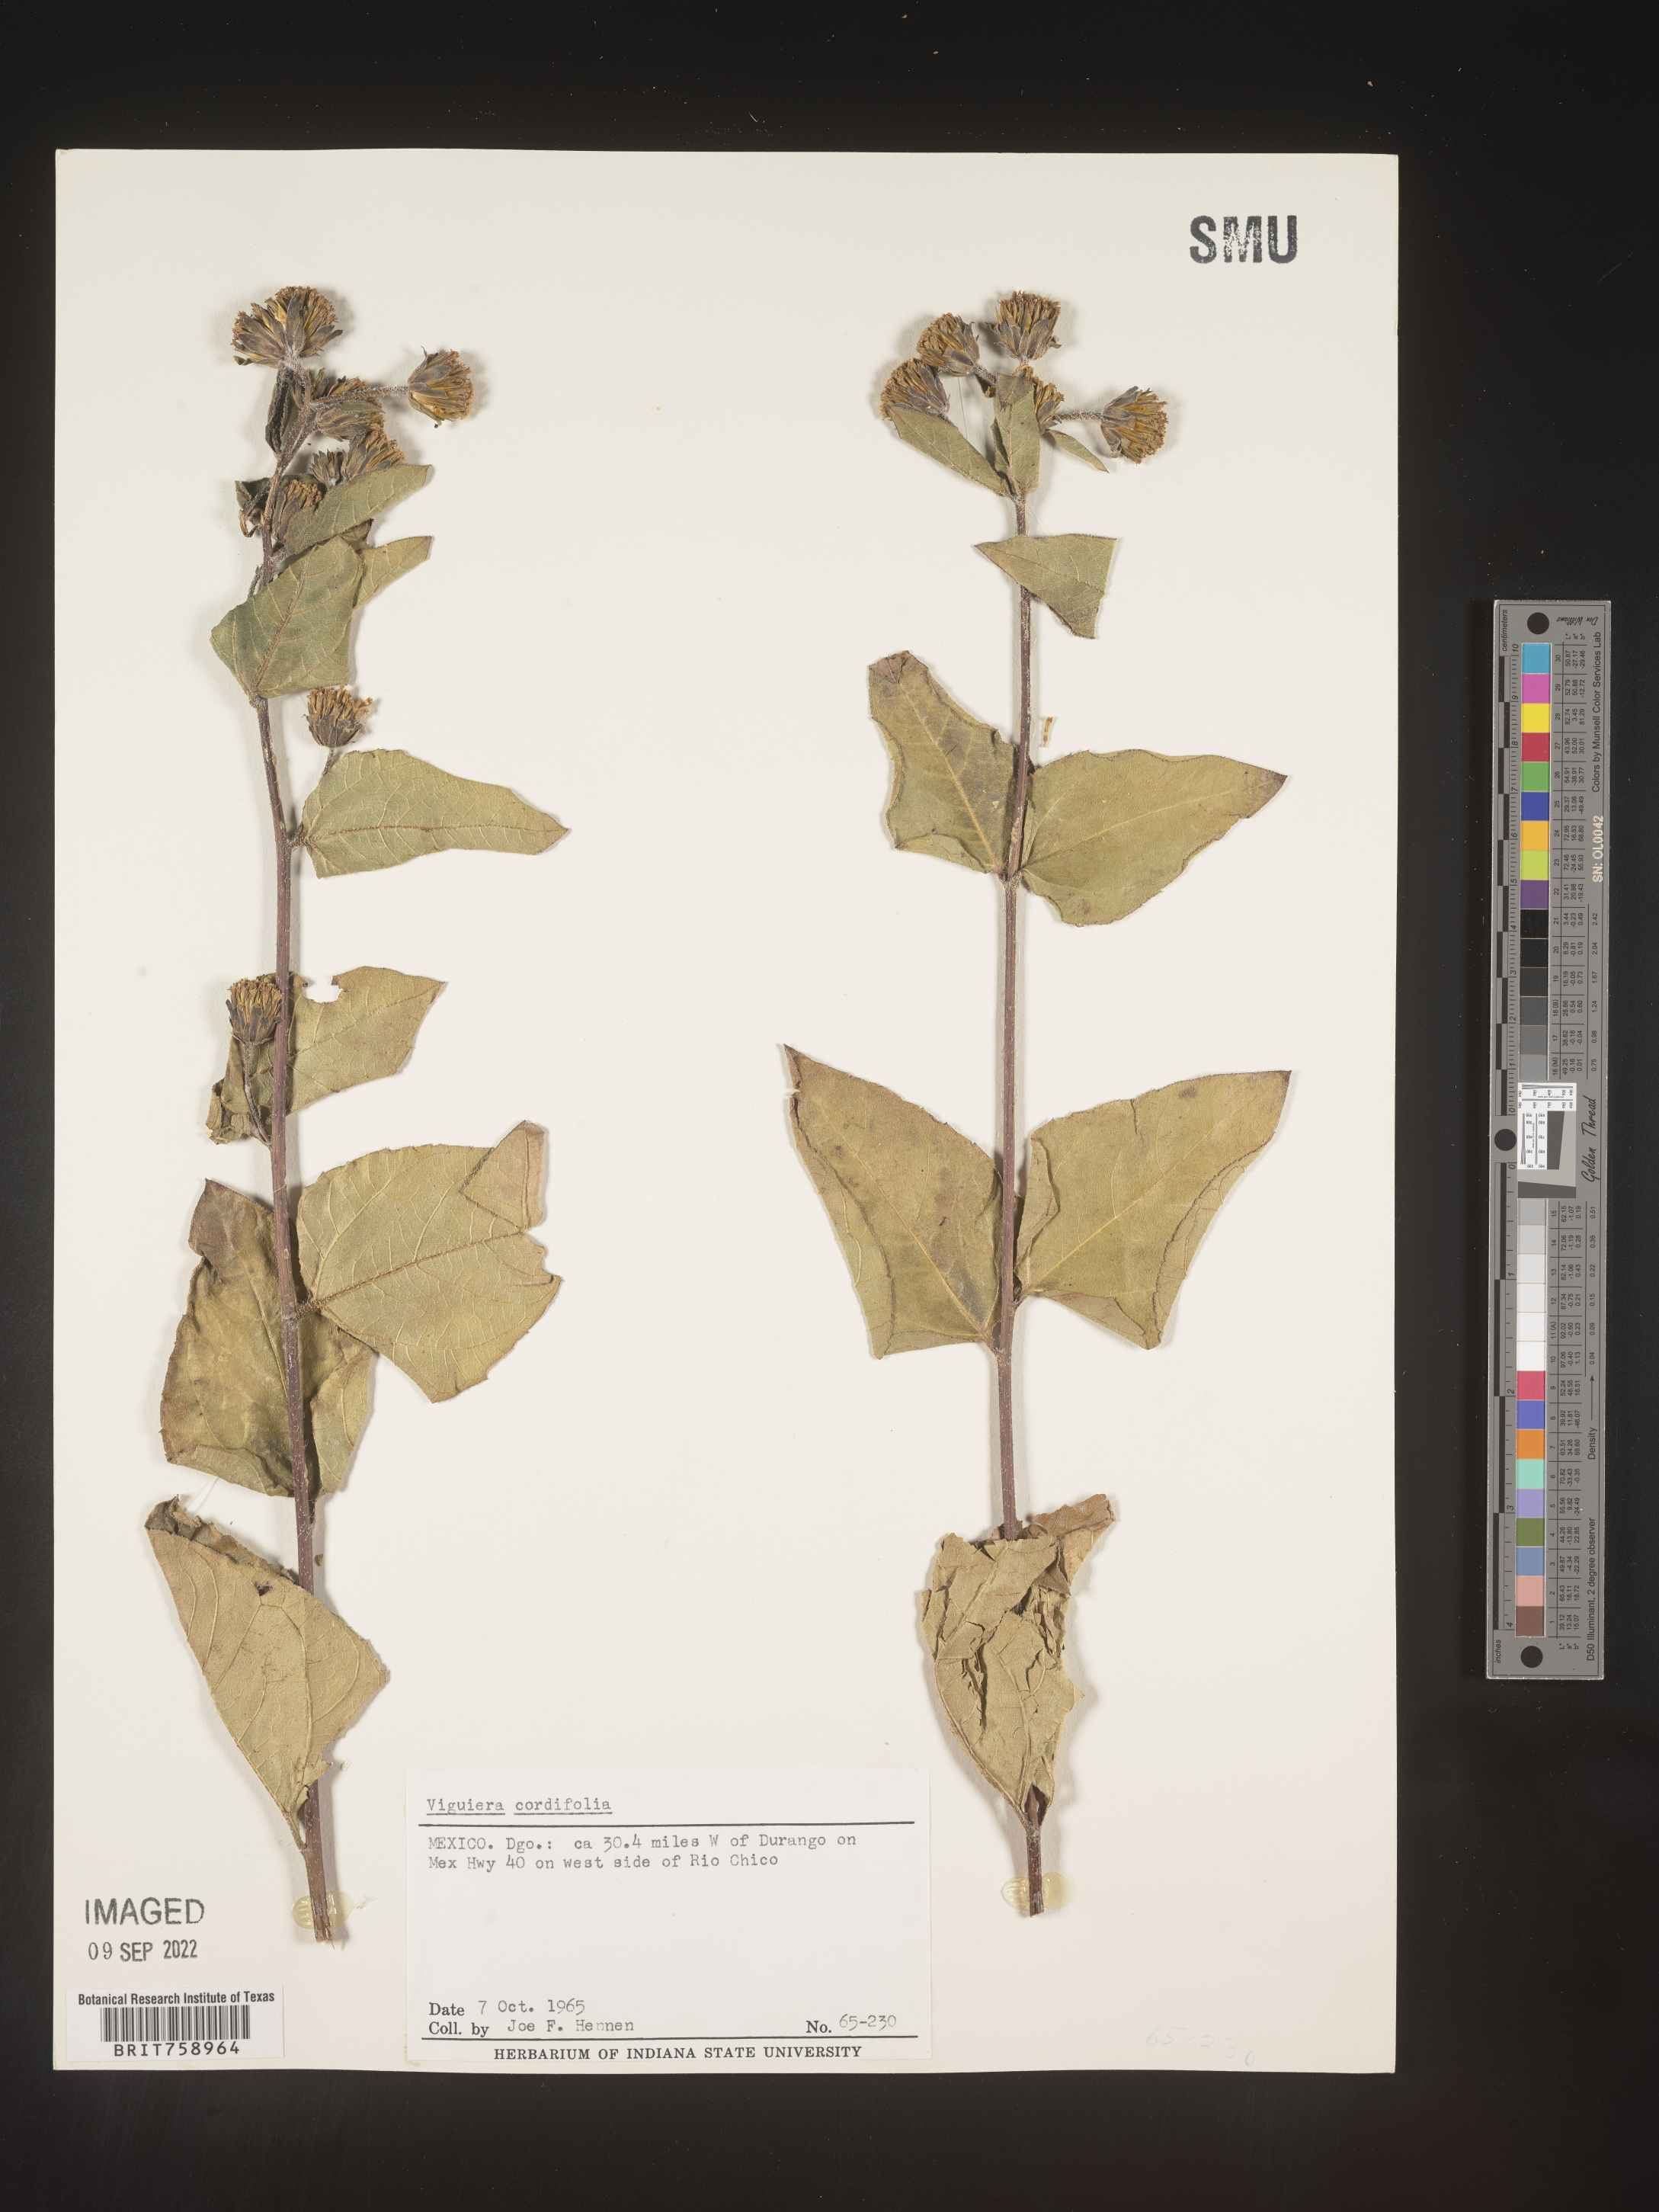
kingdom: Plantae
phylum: Tracheophyta
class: Magnoliopsida
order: Asterales
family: Asteraceae
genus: Viguiera
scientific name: Viguiera
